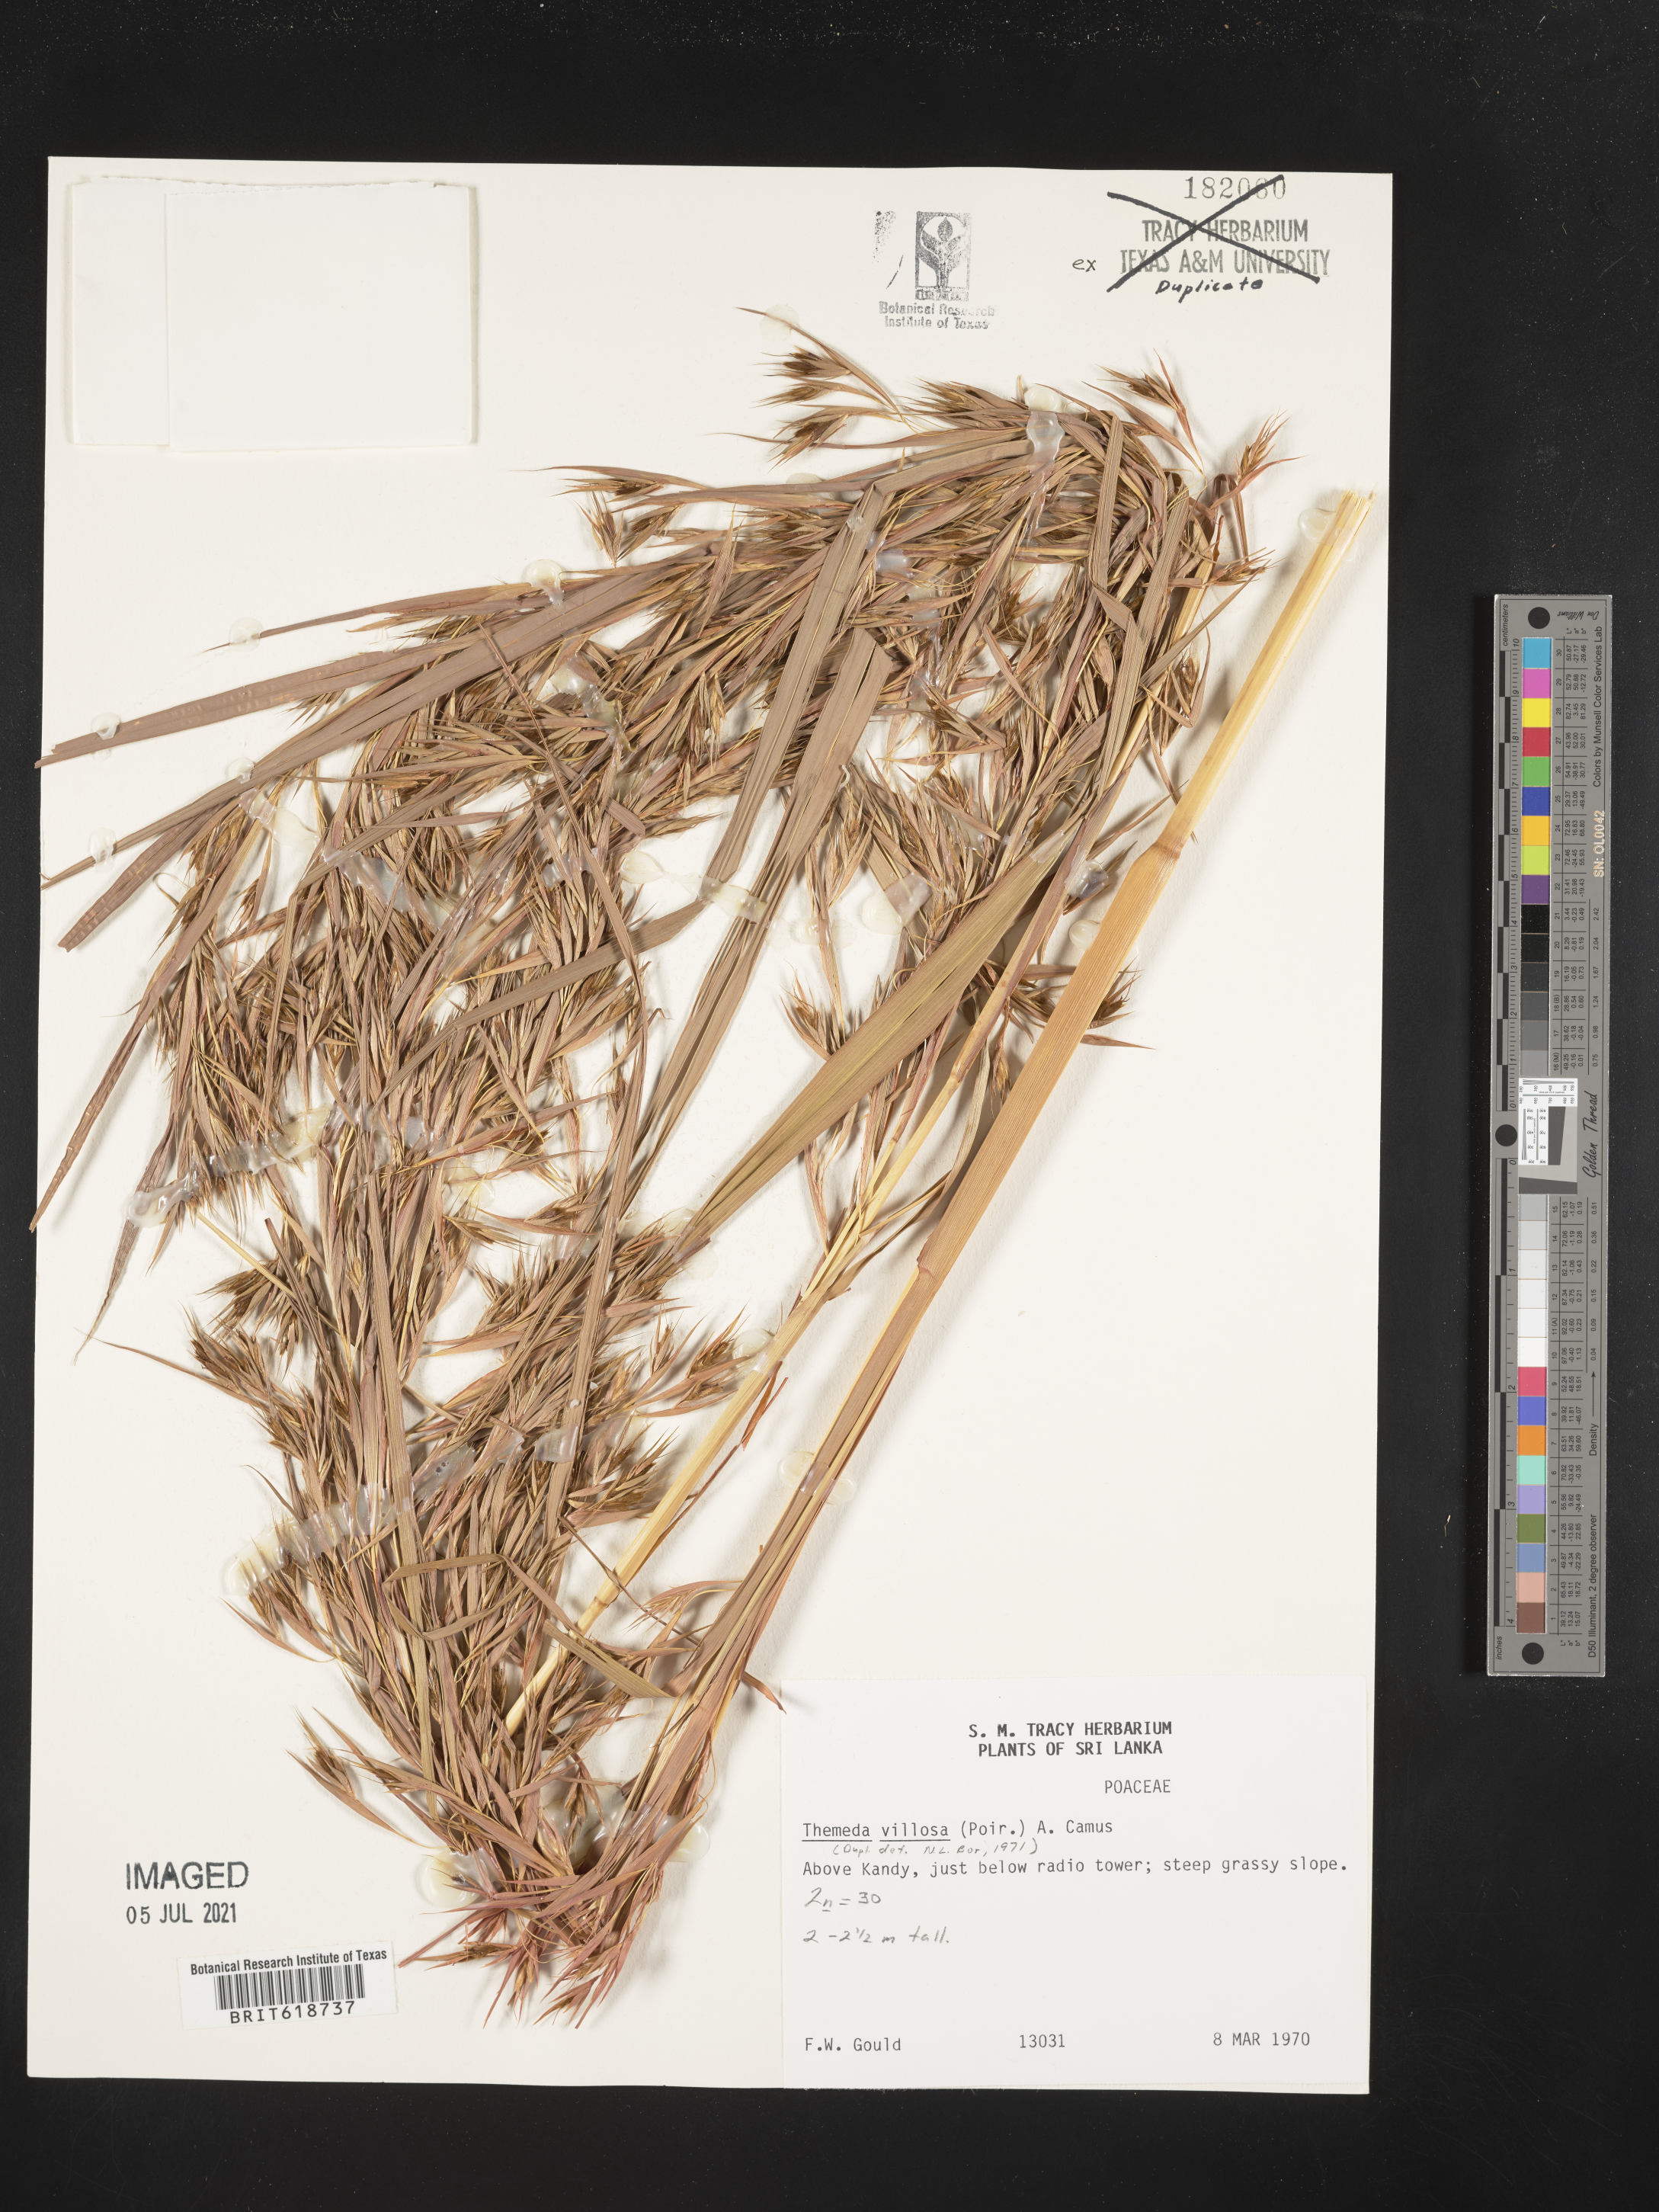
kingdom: Plantae
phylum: Tracheophyta
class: Liliopsida
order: Poales
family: Poaceae
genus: Themeda
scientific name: Themeda villosa
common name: Silky kangaroo grass
